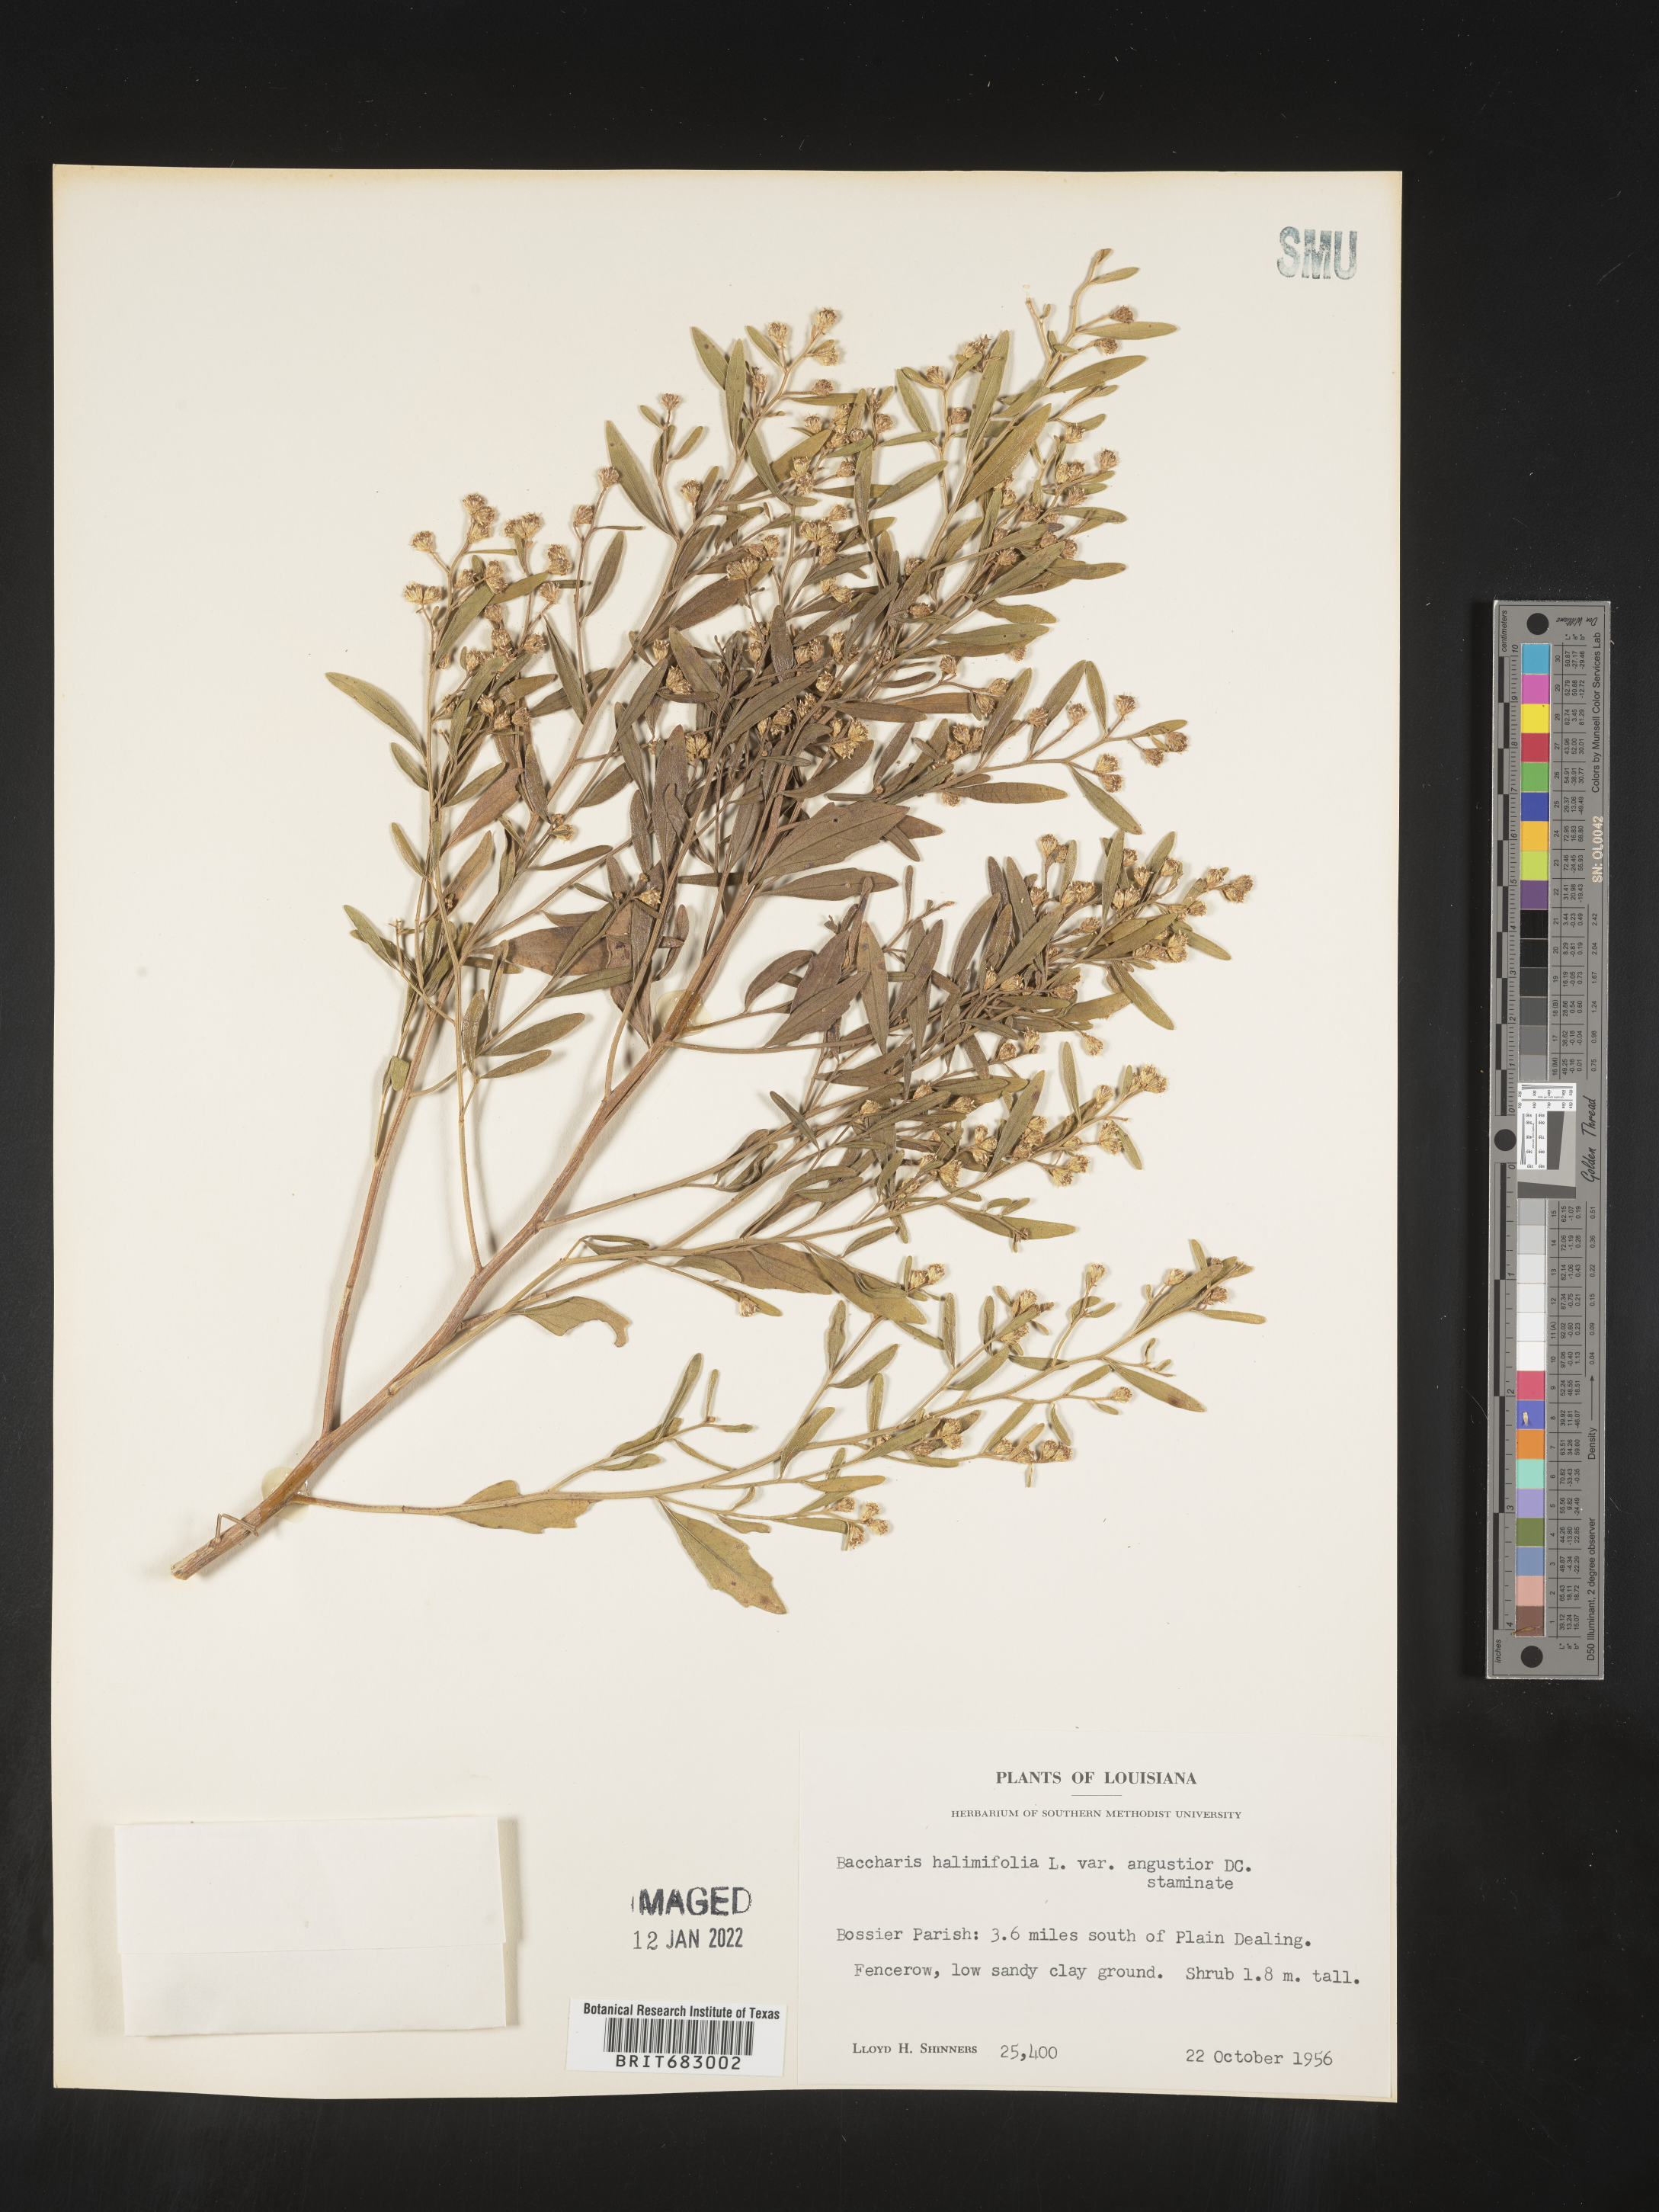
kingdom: Plantae
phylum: Tracheophyta
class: Magnoliopsida
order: Asterales
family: Asteraceae
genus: Nidorella
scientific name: Nidorella ivifolia
